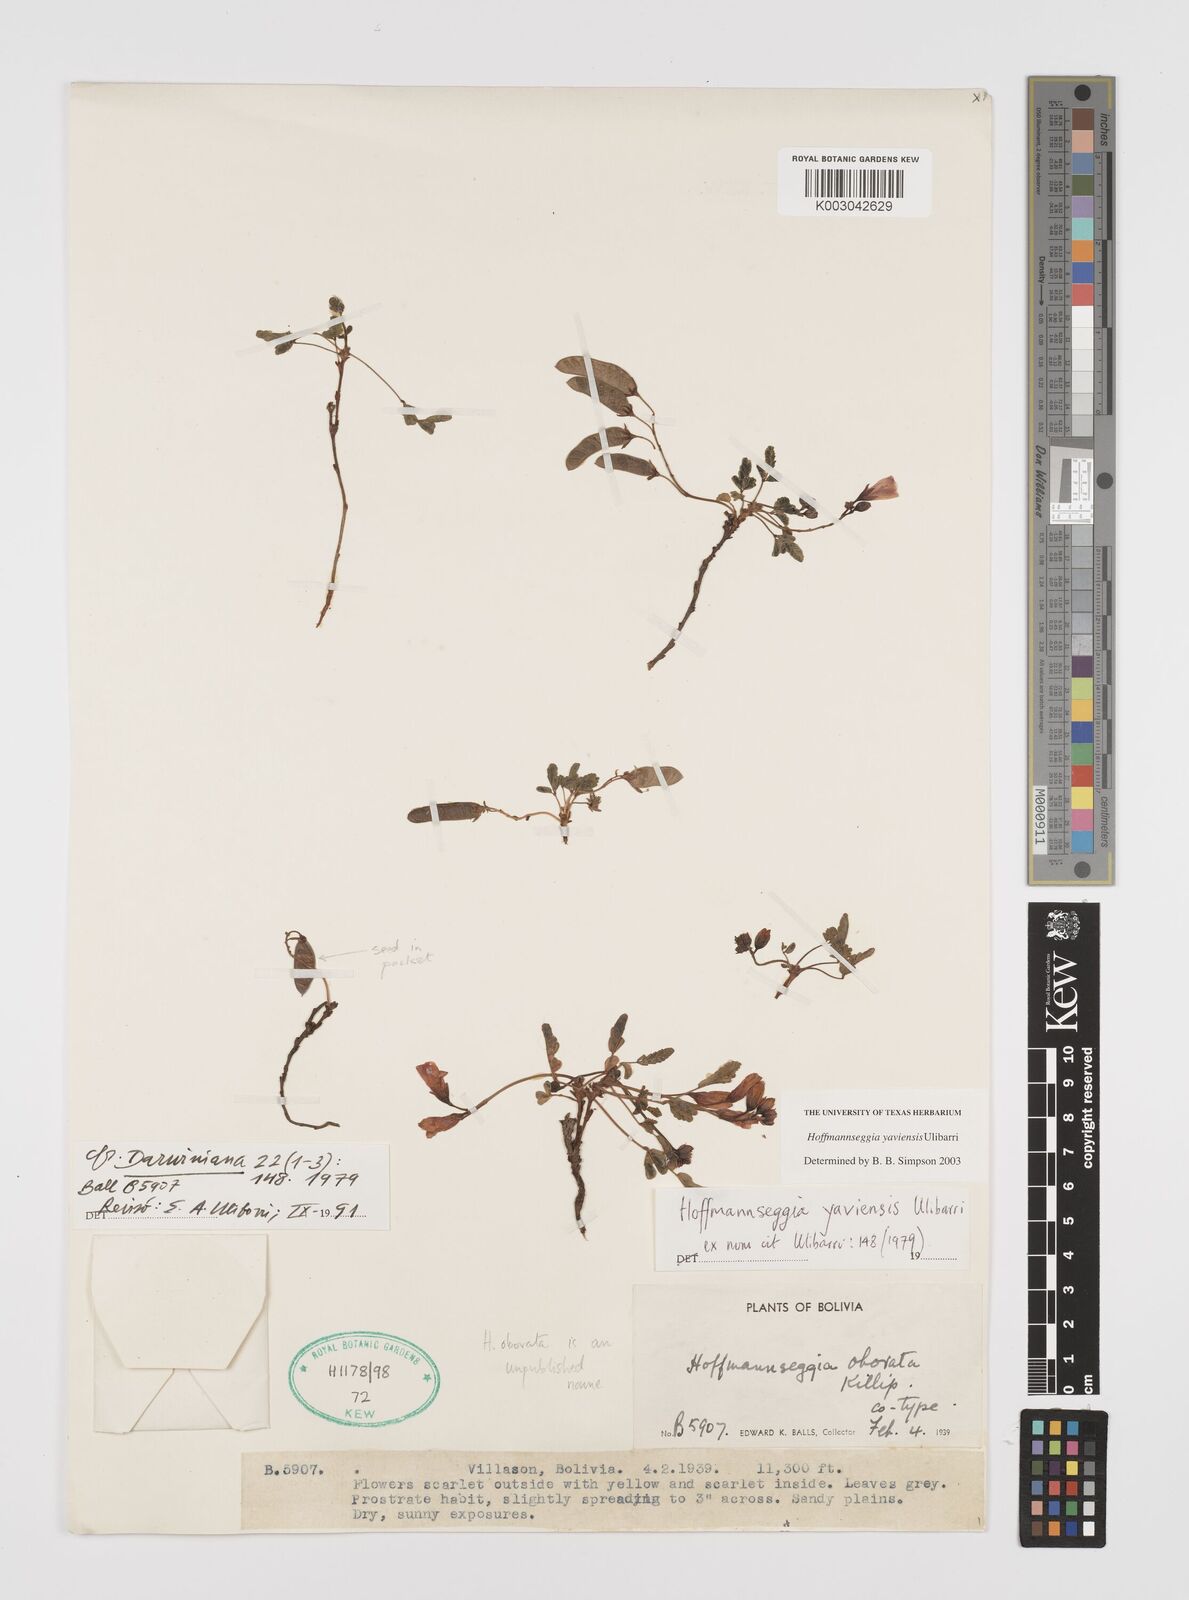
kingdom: Plantae
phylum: Tracheophyta
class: Magnoliopsida
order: Fabales
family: Fabaceae
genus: Hoffmannseggia
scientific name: Hoffmannseggia yaviensis
